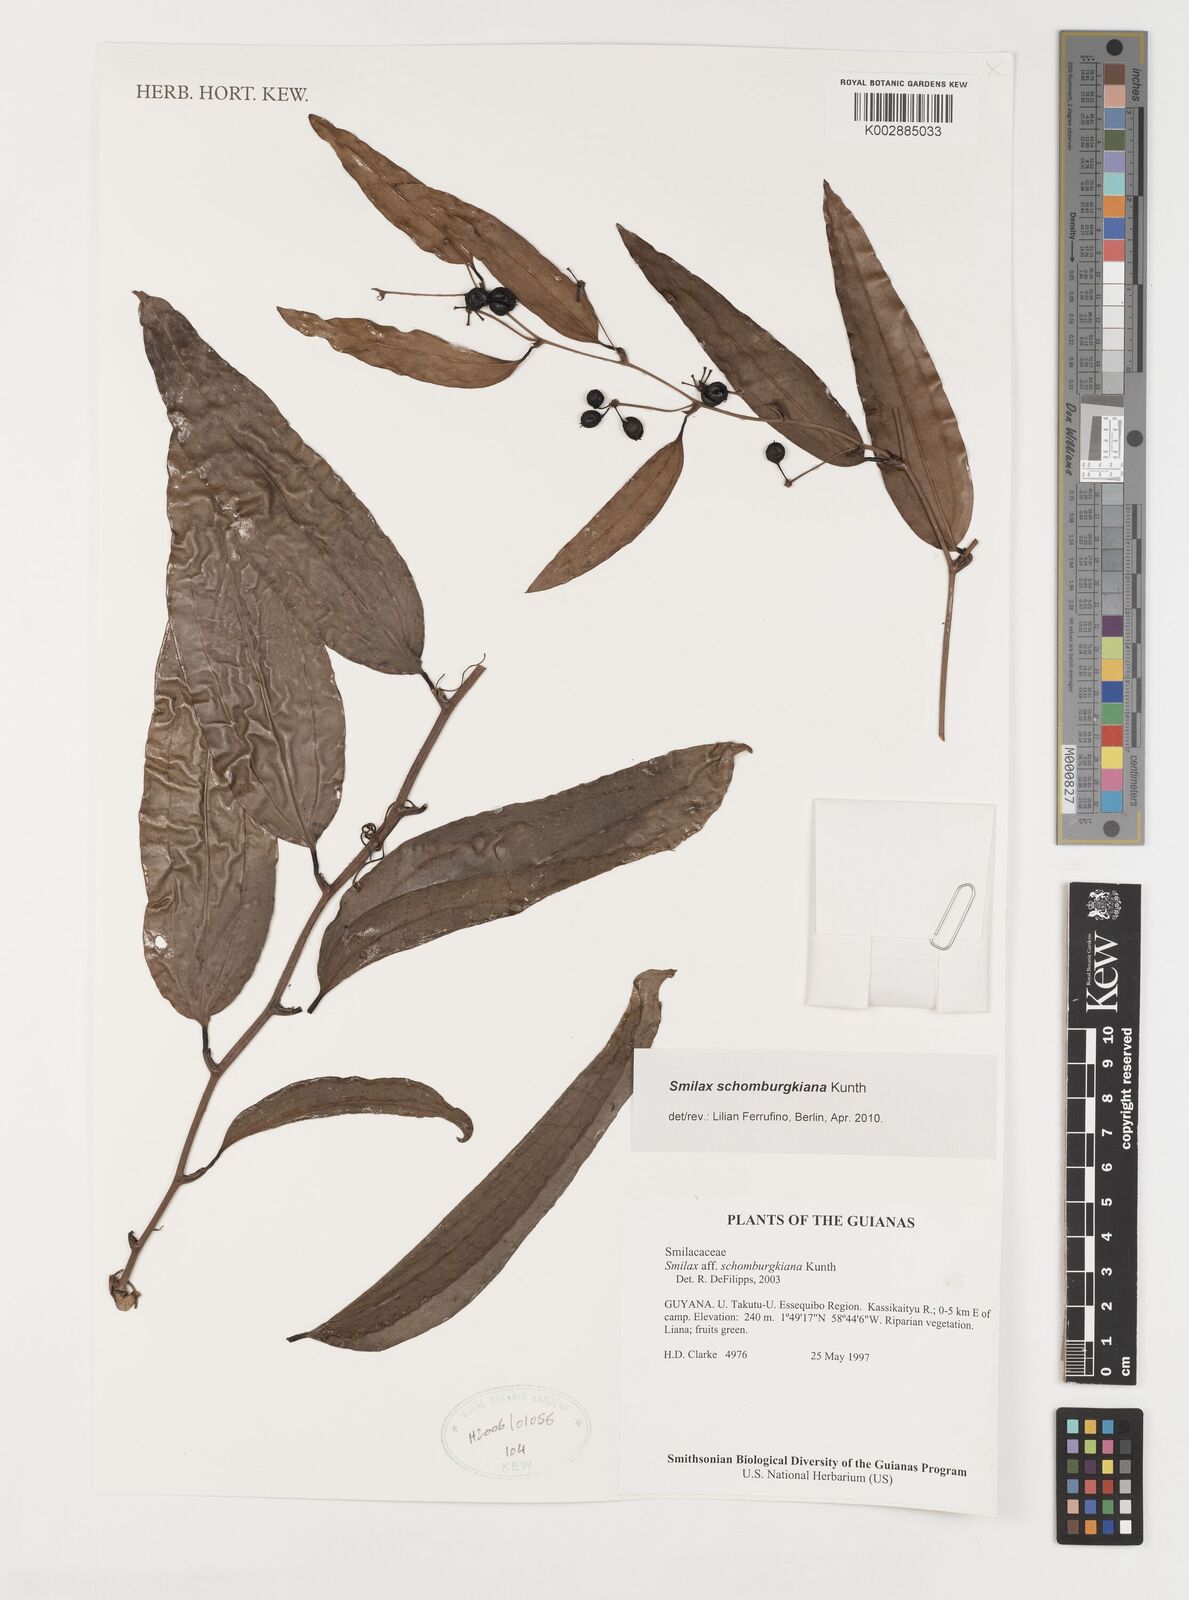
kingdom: Plantae
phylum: Tracheophyta
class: Liliopsida
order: Liliales
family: Smilacaceae
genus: Smilax
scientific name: Smilax schomburgkiana
